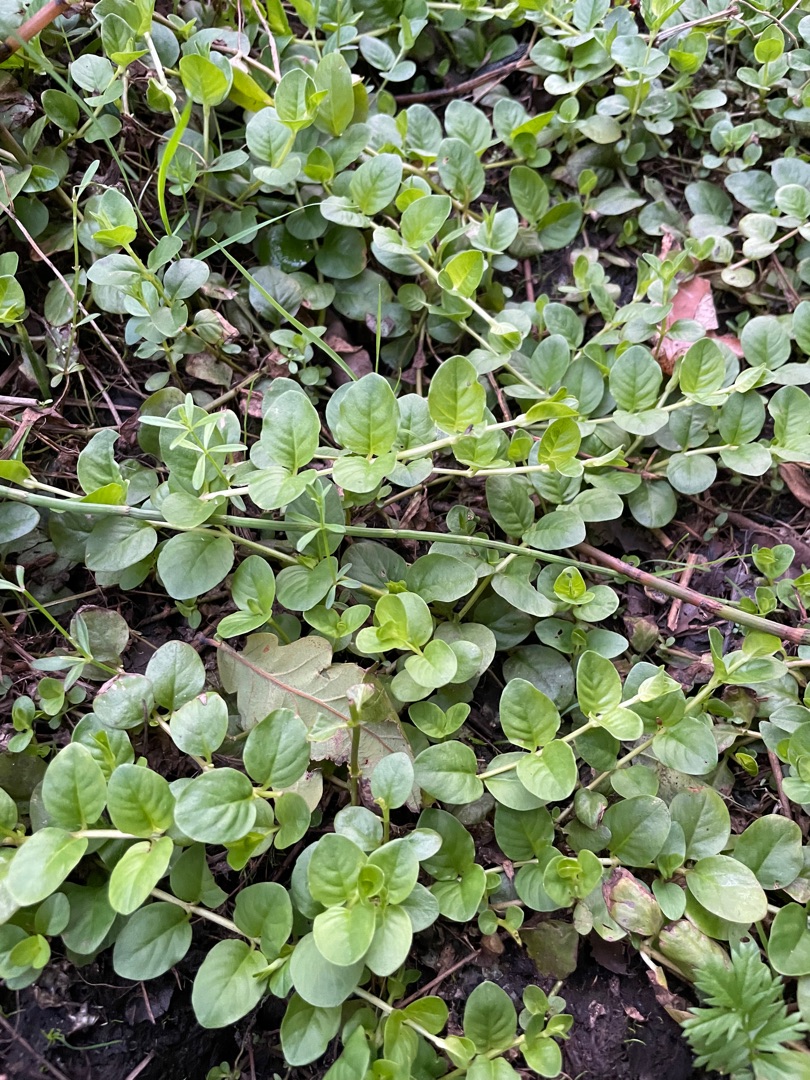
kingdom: Plantae
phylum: Tracheophyta
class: Magnoliopsida
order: Ericales
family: Primulaceae
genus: Lysimachia
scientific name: Lysimachia nummularia
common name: Pengebladet fredløs
